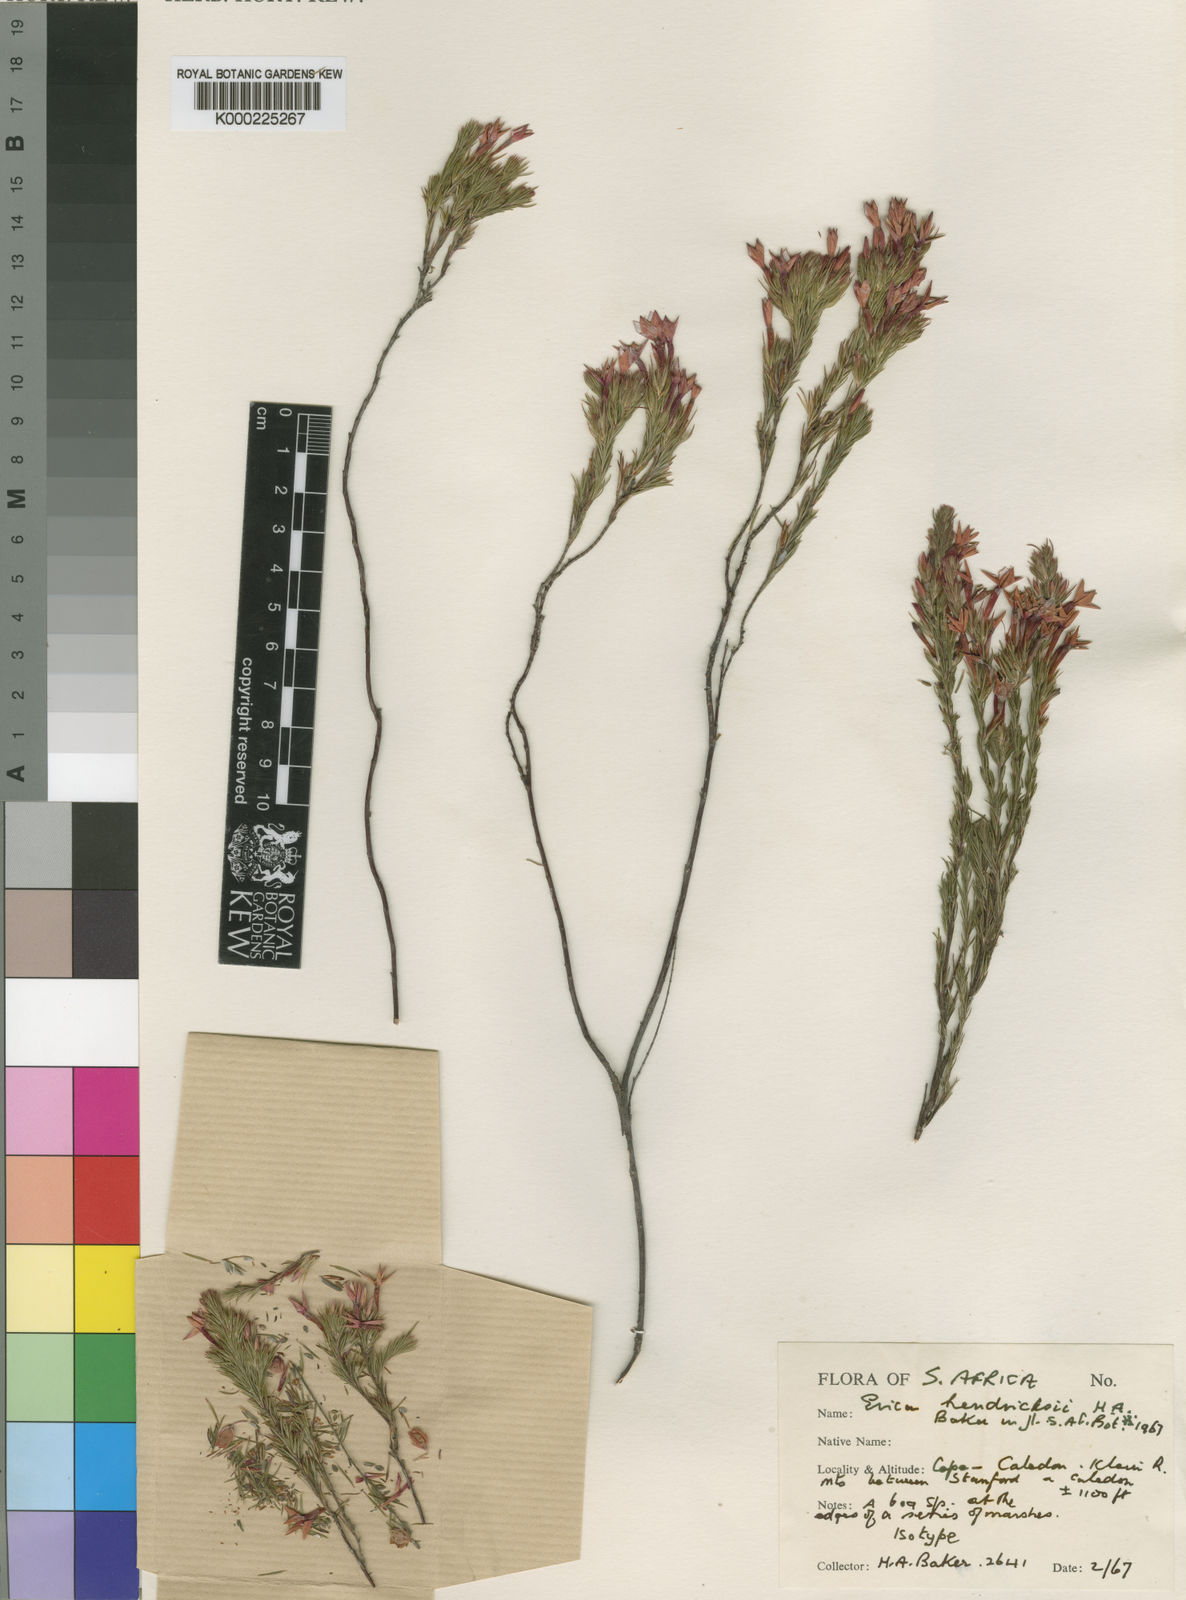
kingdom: Plantae
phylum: Tracheophyta
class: Magnoliopsida
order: Ericales
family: Ericaceae
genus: Erica
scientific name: Erica hendricksei
